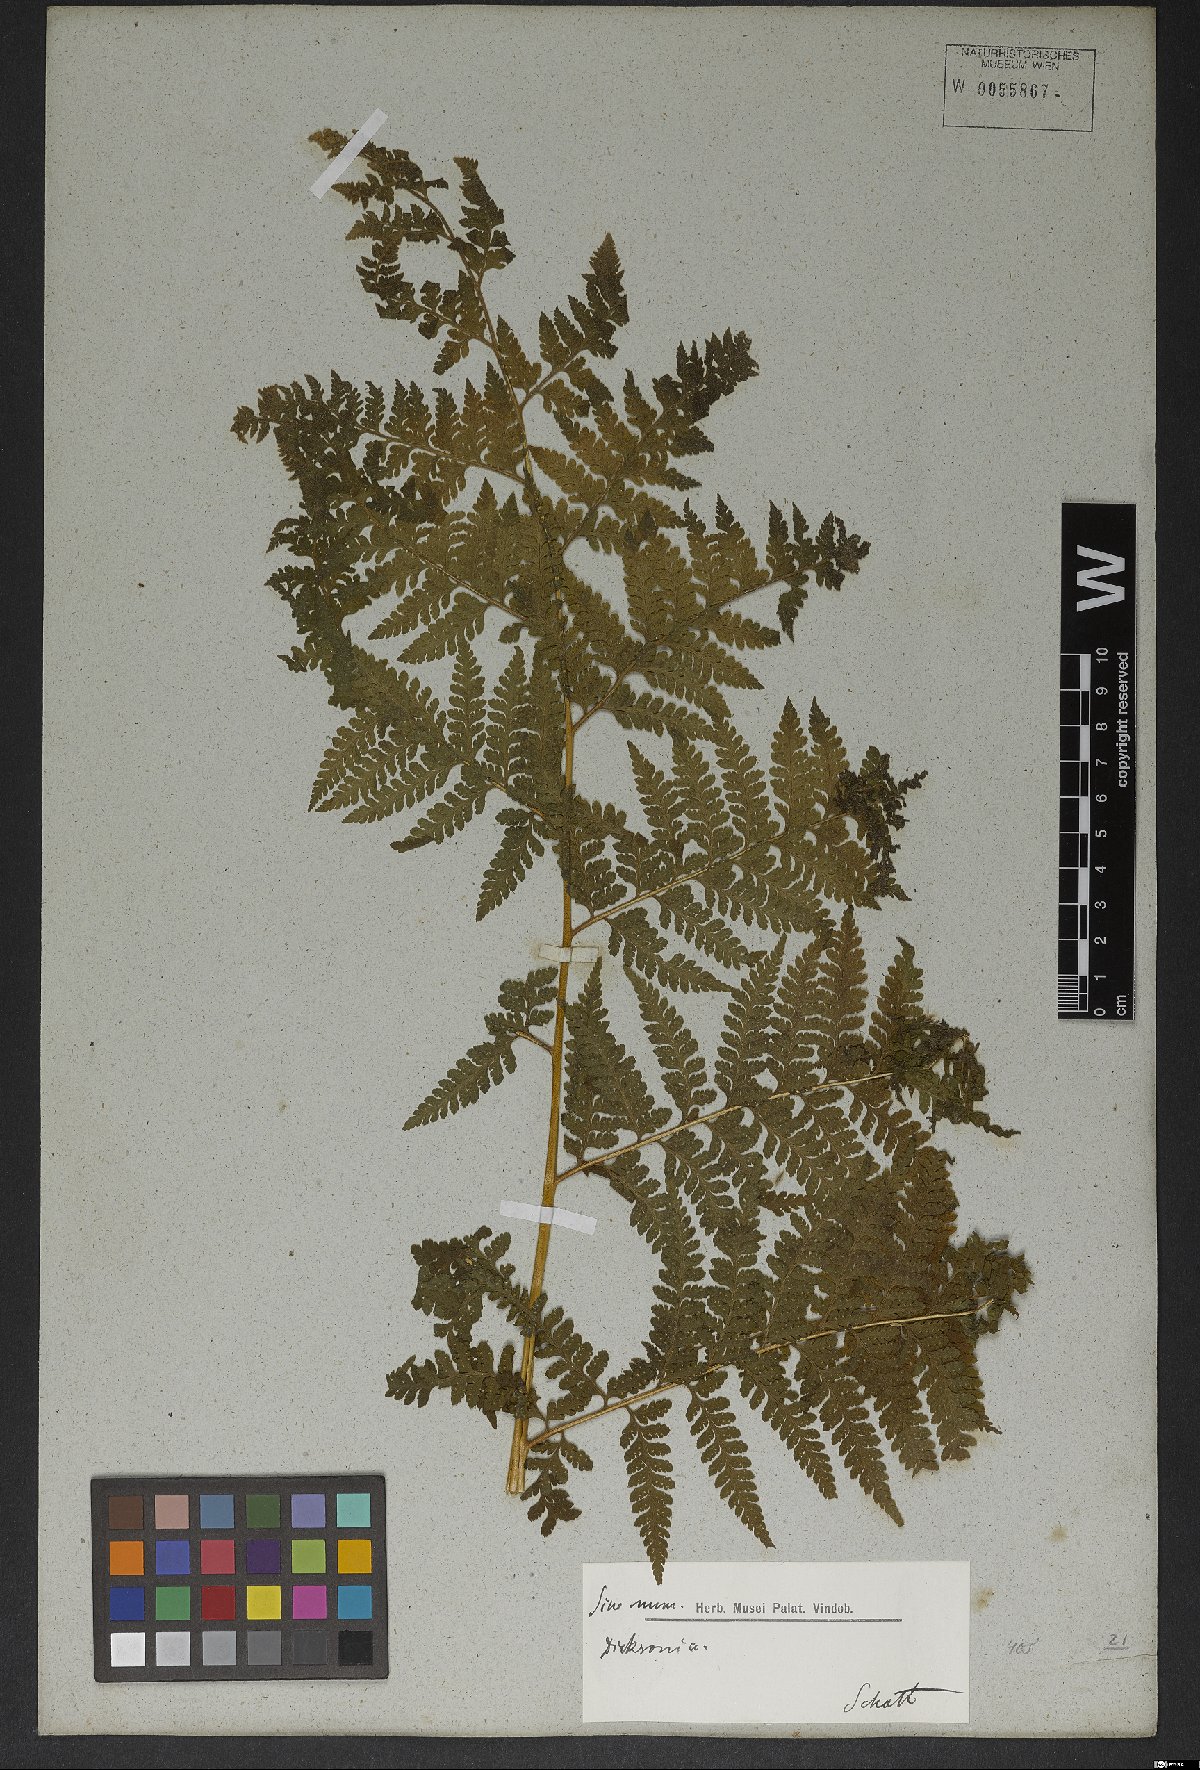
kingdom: Plantae
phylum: Tracheophyta
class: Polypodiopsida
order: Polypodiales
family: Dennstaedtiaceae
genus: Microlepia
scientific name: Microlepia speluncae
